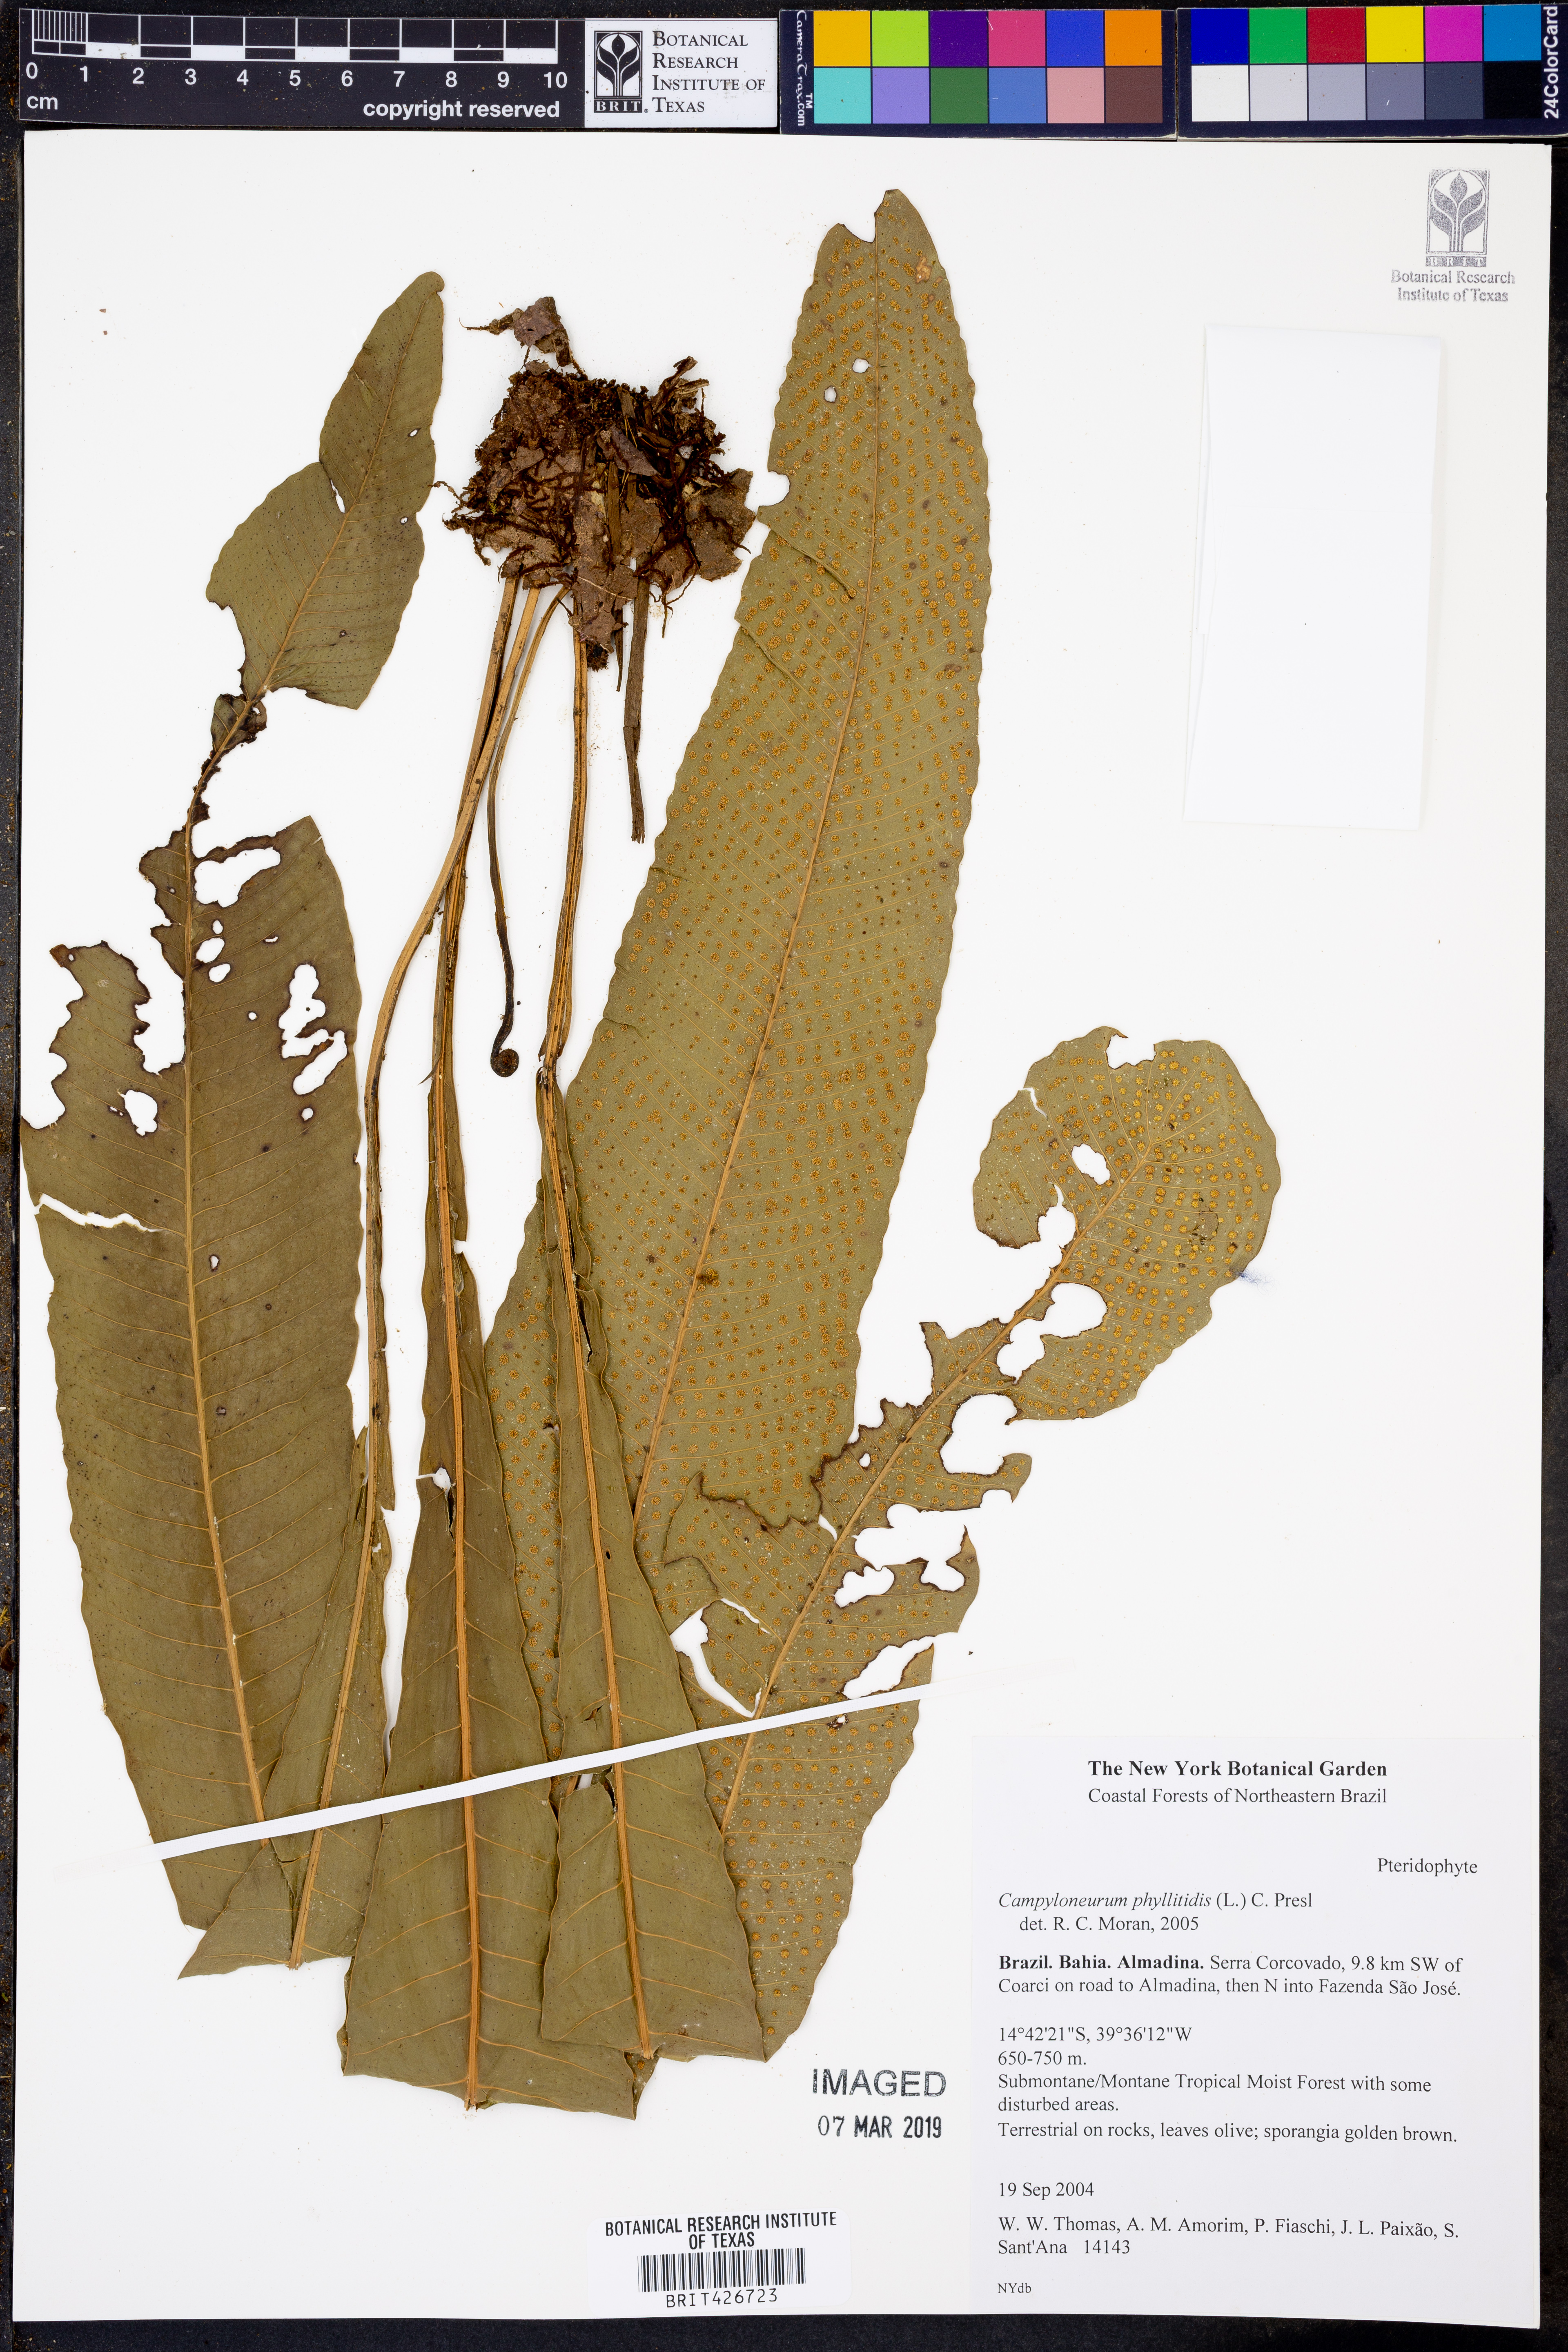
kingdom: Plantae
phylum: Tracheophyta
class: Polypodiopsida
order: Polypodiales
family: Polypodiaceae
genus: Campyloneurum
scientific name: Campyloneurum phyllitidis
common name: Cow-tongue fern
